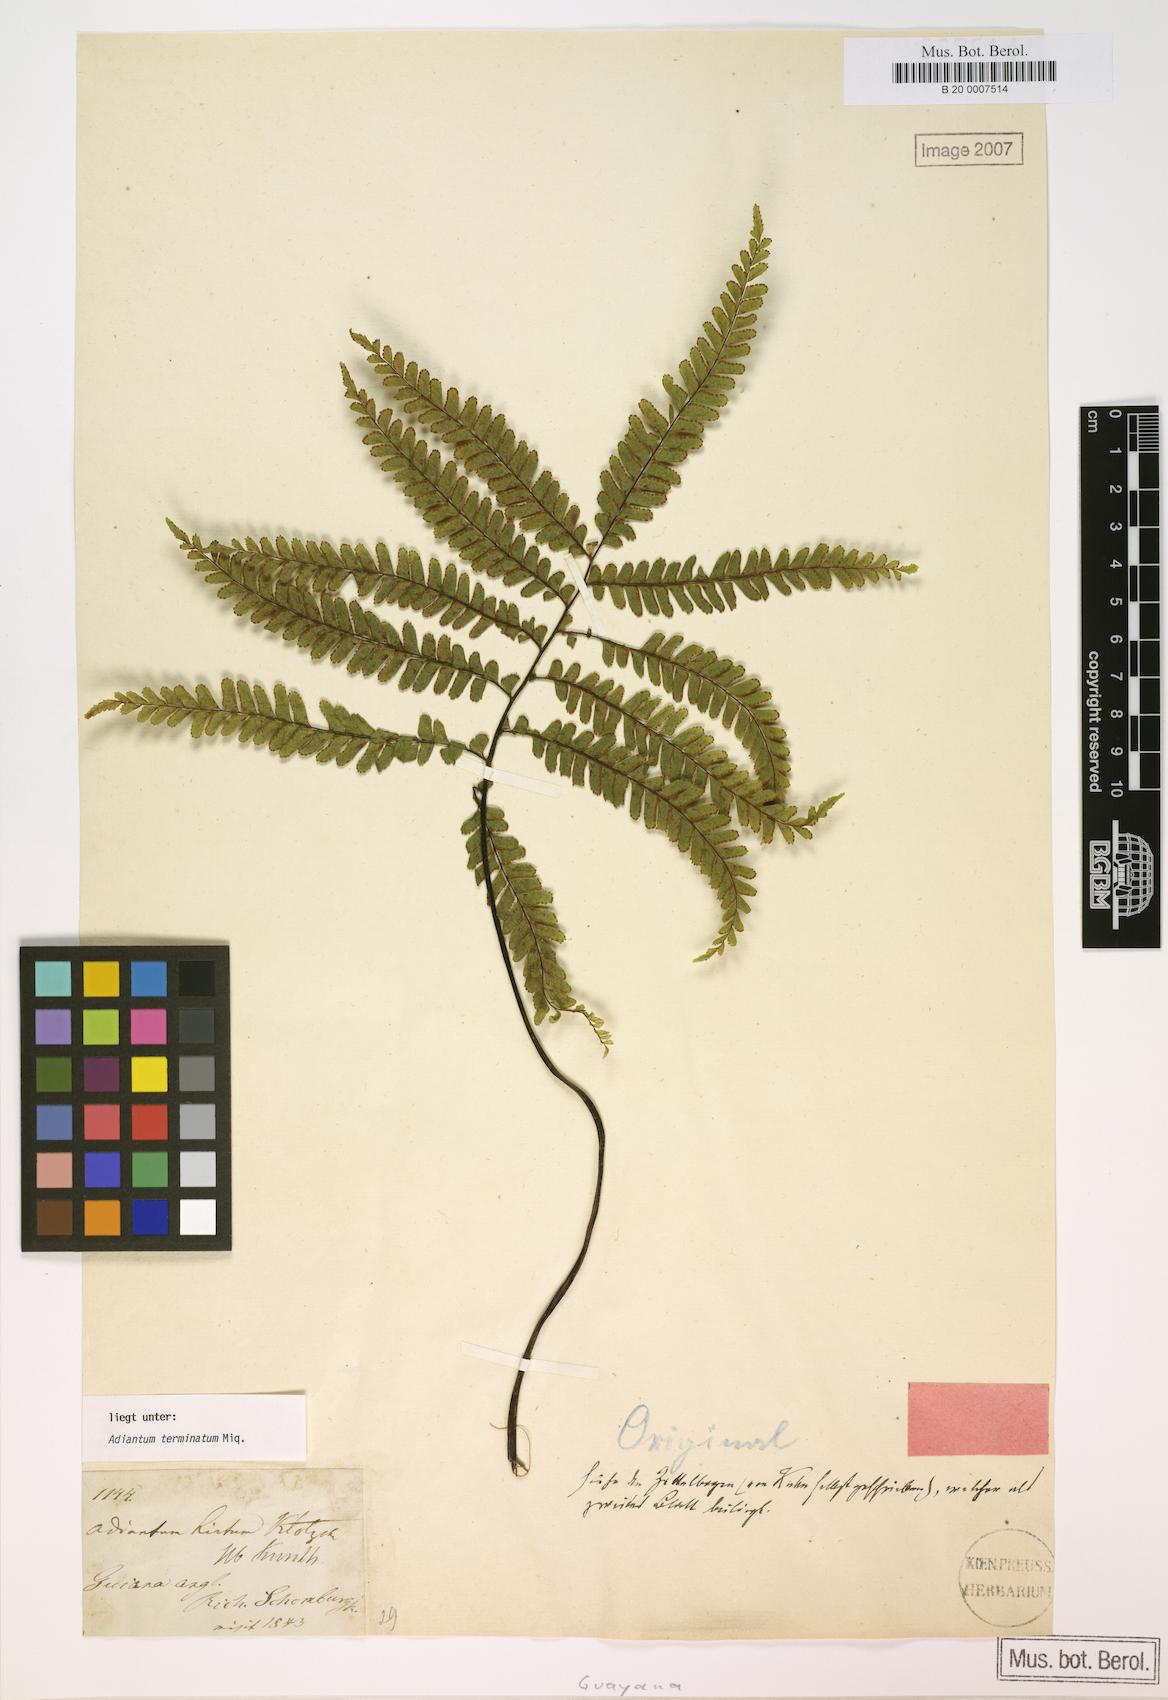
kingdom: Plantae
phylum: Tracheophyta
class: Polypodiopsida
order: Polypodiales
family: Pteridaceae
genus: Adiantum
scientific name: Adiantum terminatum
